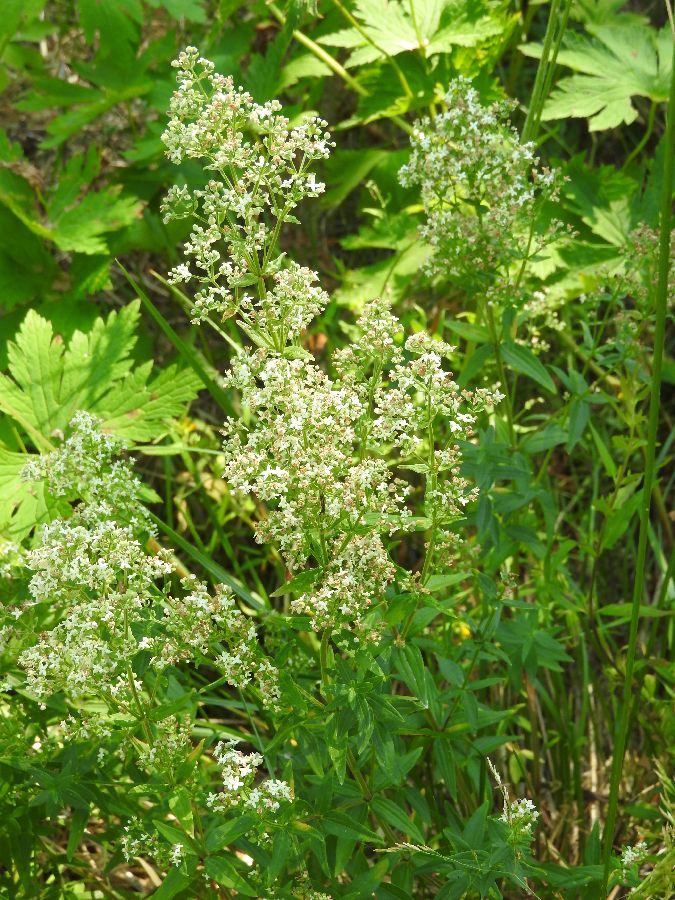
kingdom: Plantae
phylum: Tracheophyta
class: Magnoliopsida
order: Gentianales
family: Rubiaceae
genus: Galium
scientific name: Galium boreale
